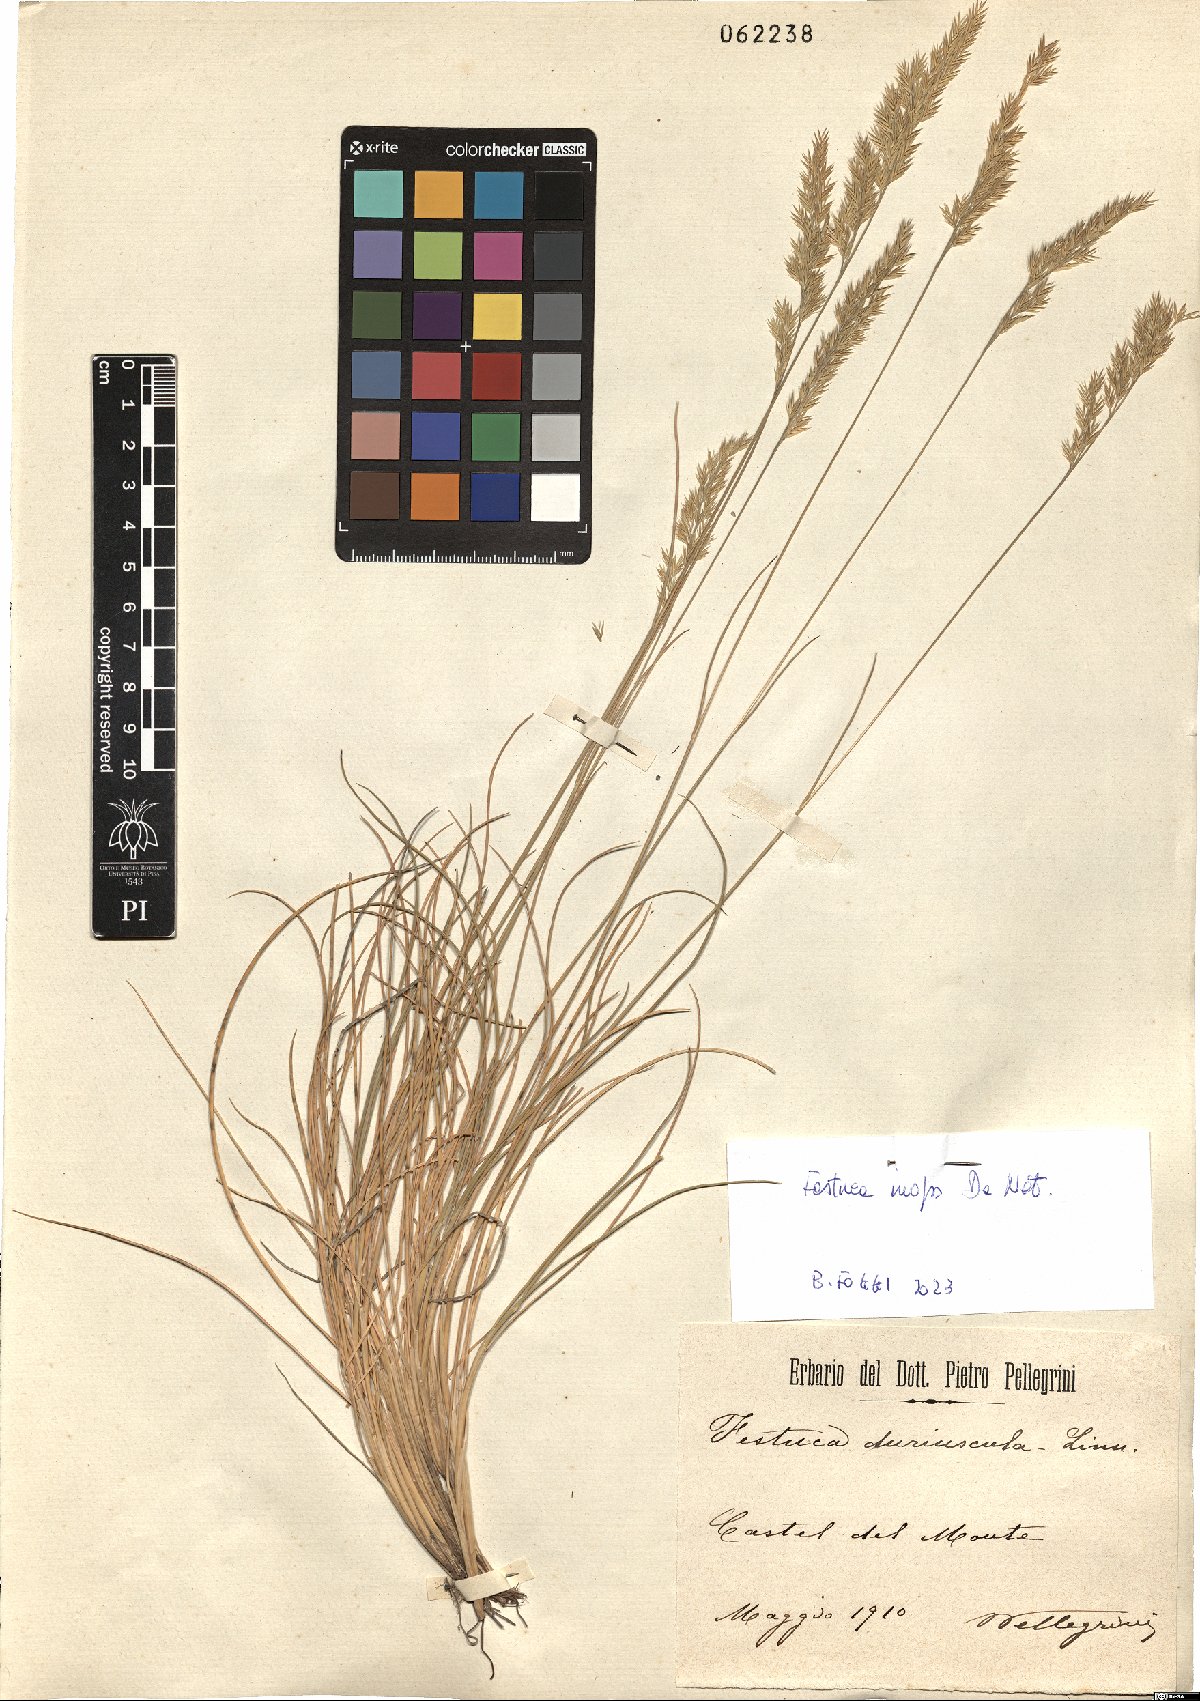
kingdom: Plantae
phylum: Tracheophyta
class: Liliopsida
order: Poales
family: Poaceae
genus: Festuca
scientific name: Festuca inops
